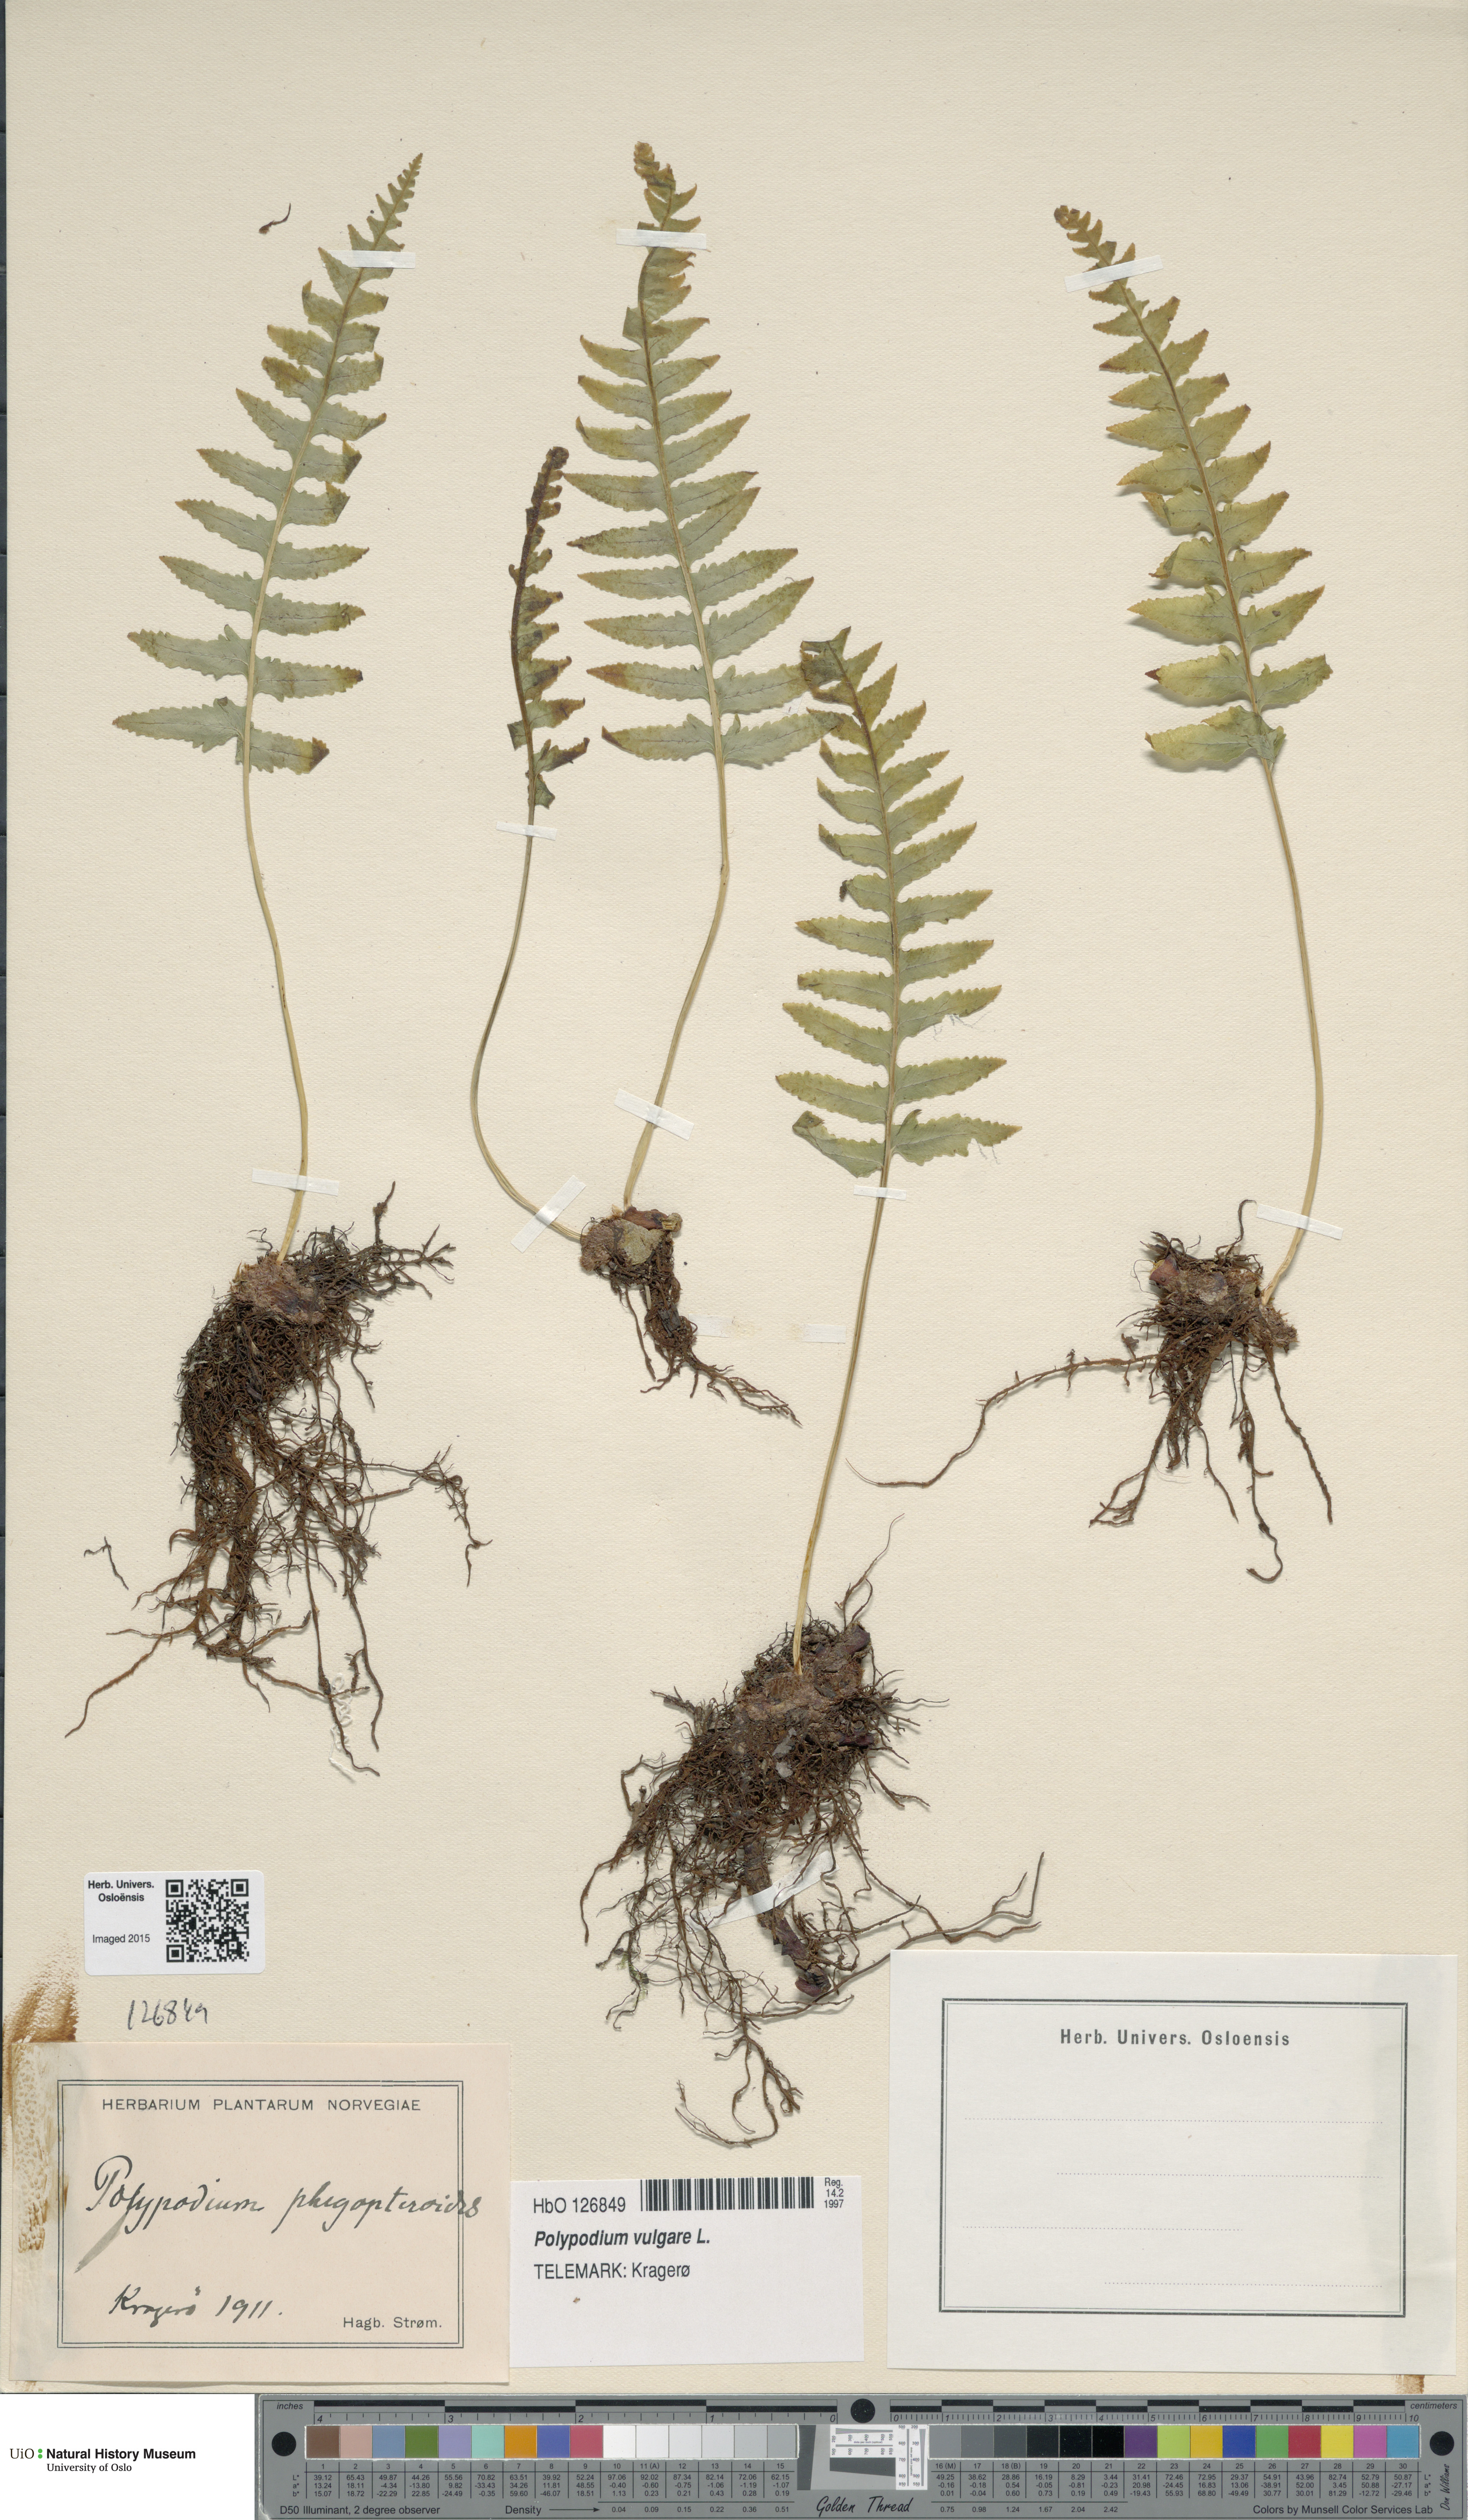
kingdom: Plantae
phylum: Tracheophyta
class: Polypodiopsida
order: Polypodiales
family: Polypodiaceae
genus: Polypodium
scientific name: Polypodium vulgare
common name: Common polypody
